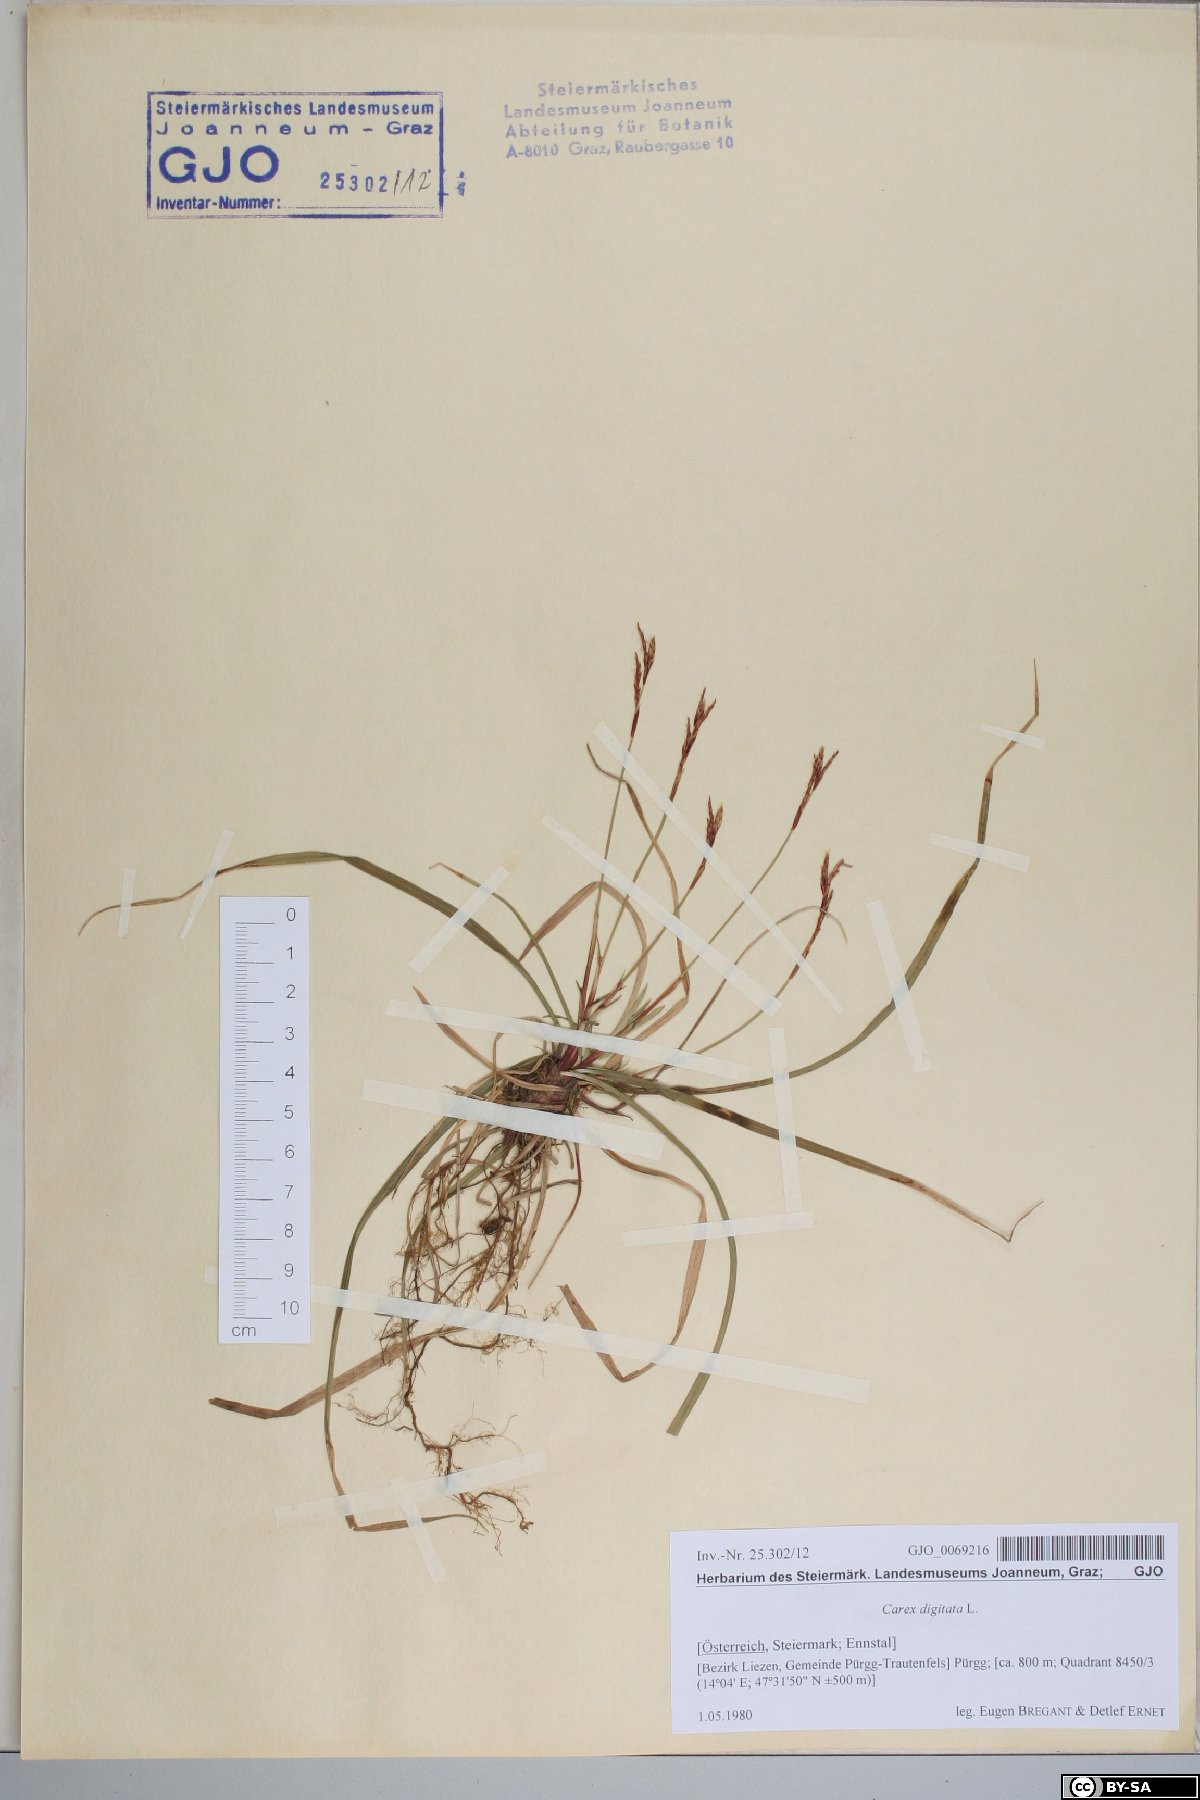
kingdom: Plantae
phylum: Tracheophyta
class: Liliopsida
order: Poales
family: Cyperaceae
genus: Carex
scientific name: Carex digitata
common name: Fingered sedge
